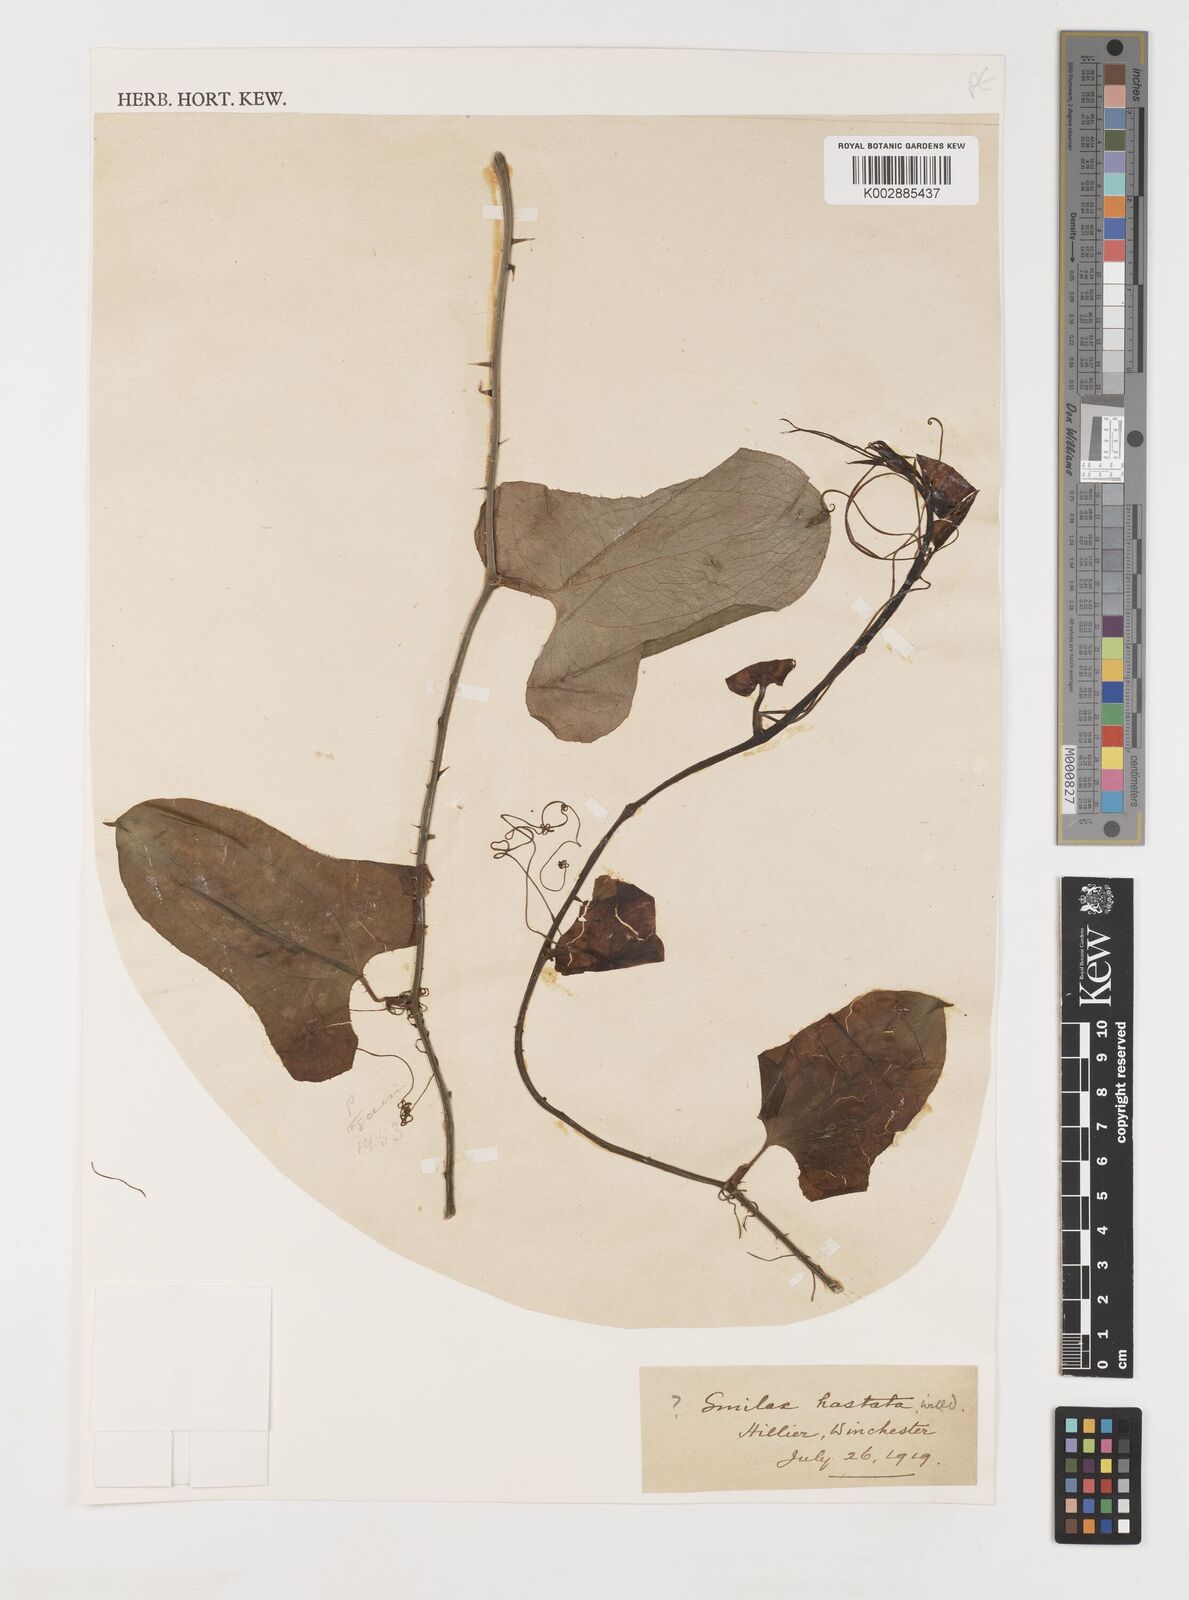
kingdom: Plantae
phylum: Tracheophyta
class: Liliopsida
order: Liliales
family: Smilacaceae
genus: Smilax
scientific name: Smilax bona-nox
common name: Catbrier
